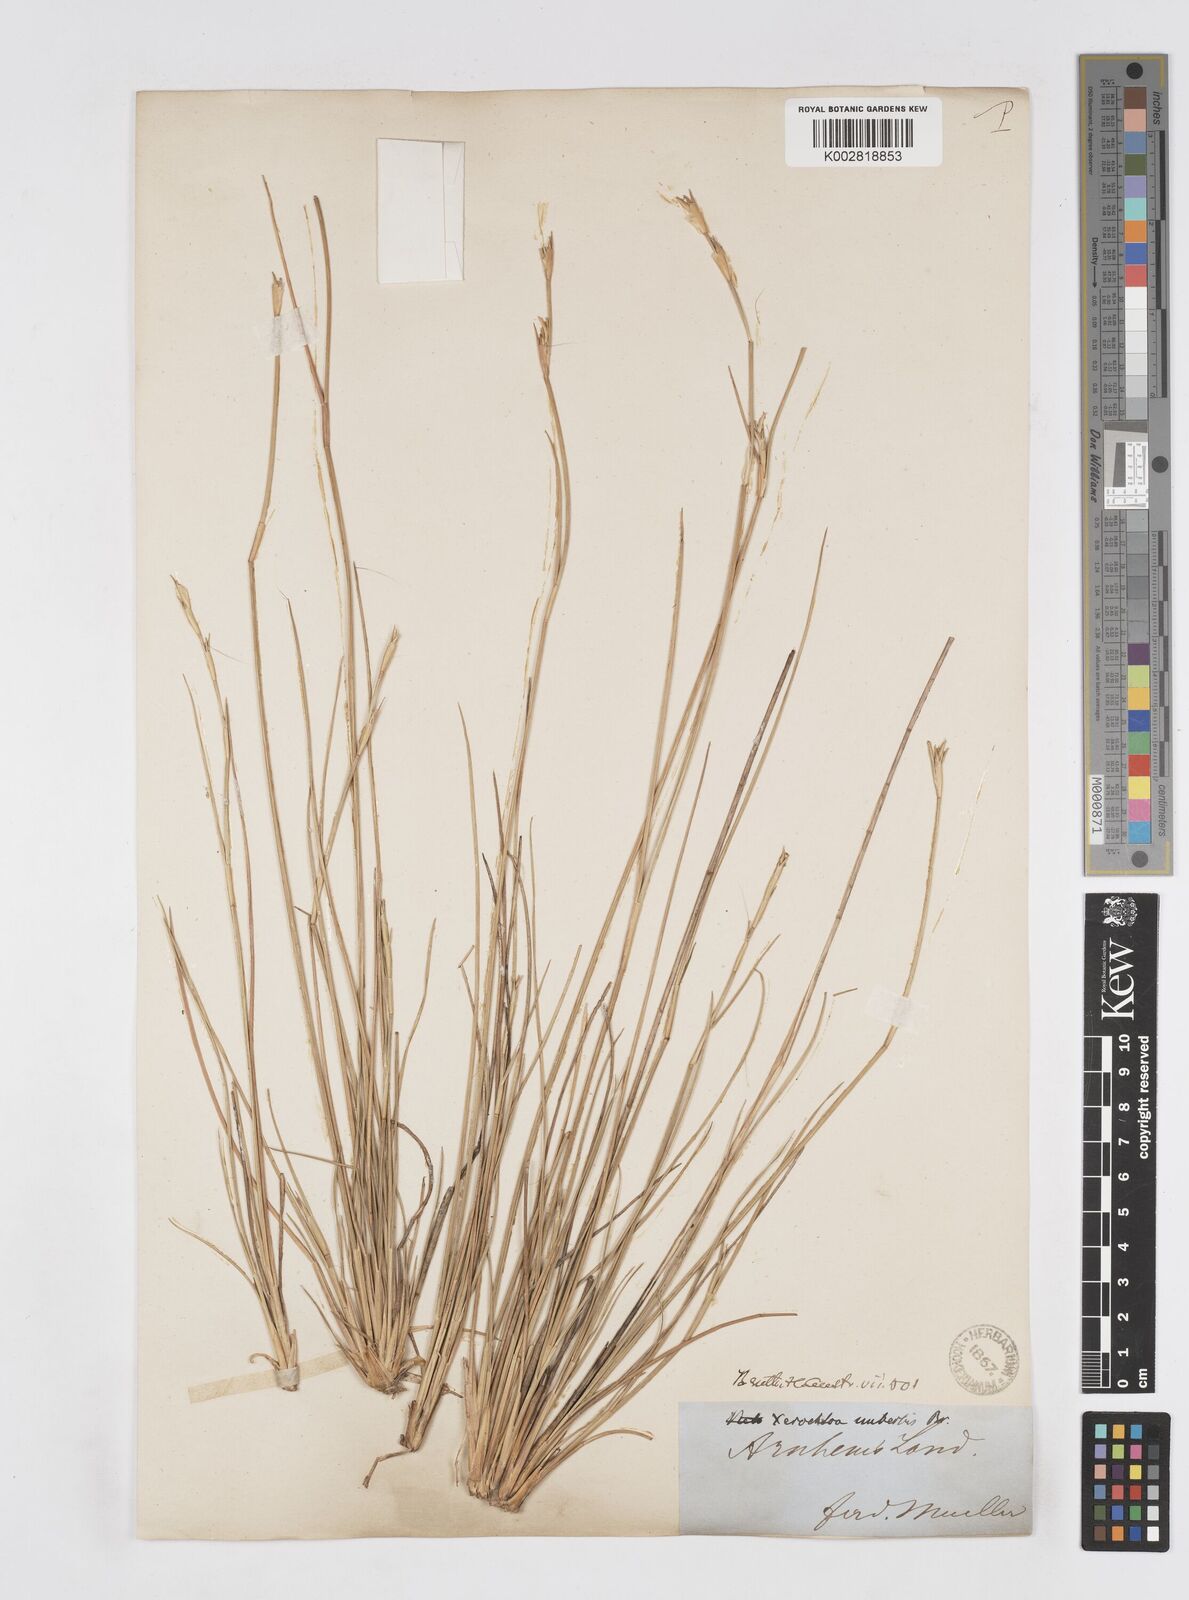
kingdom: Plantae
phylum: Tracheophyta
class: Liliopsida
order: Poales
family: Poaceae
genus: Xerochloa
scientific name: Xerochloa imberbis
